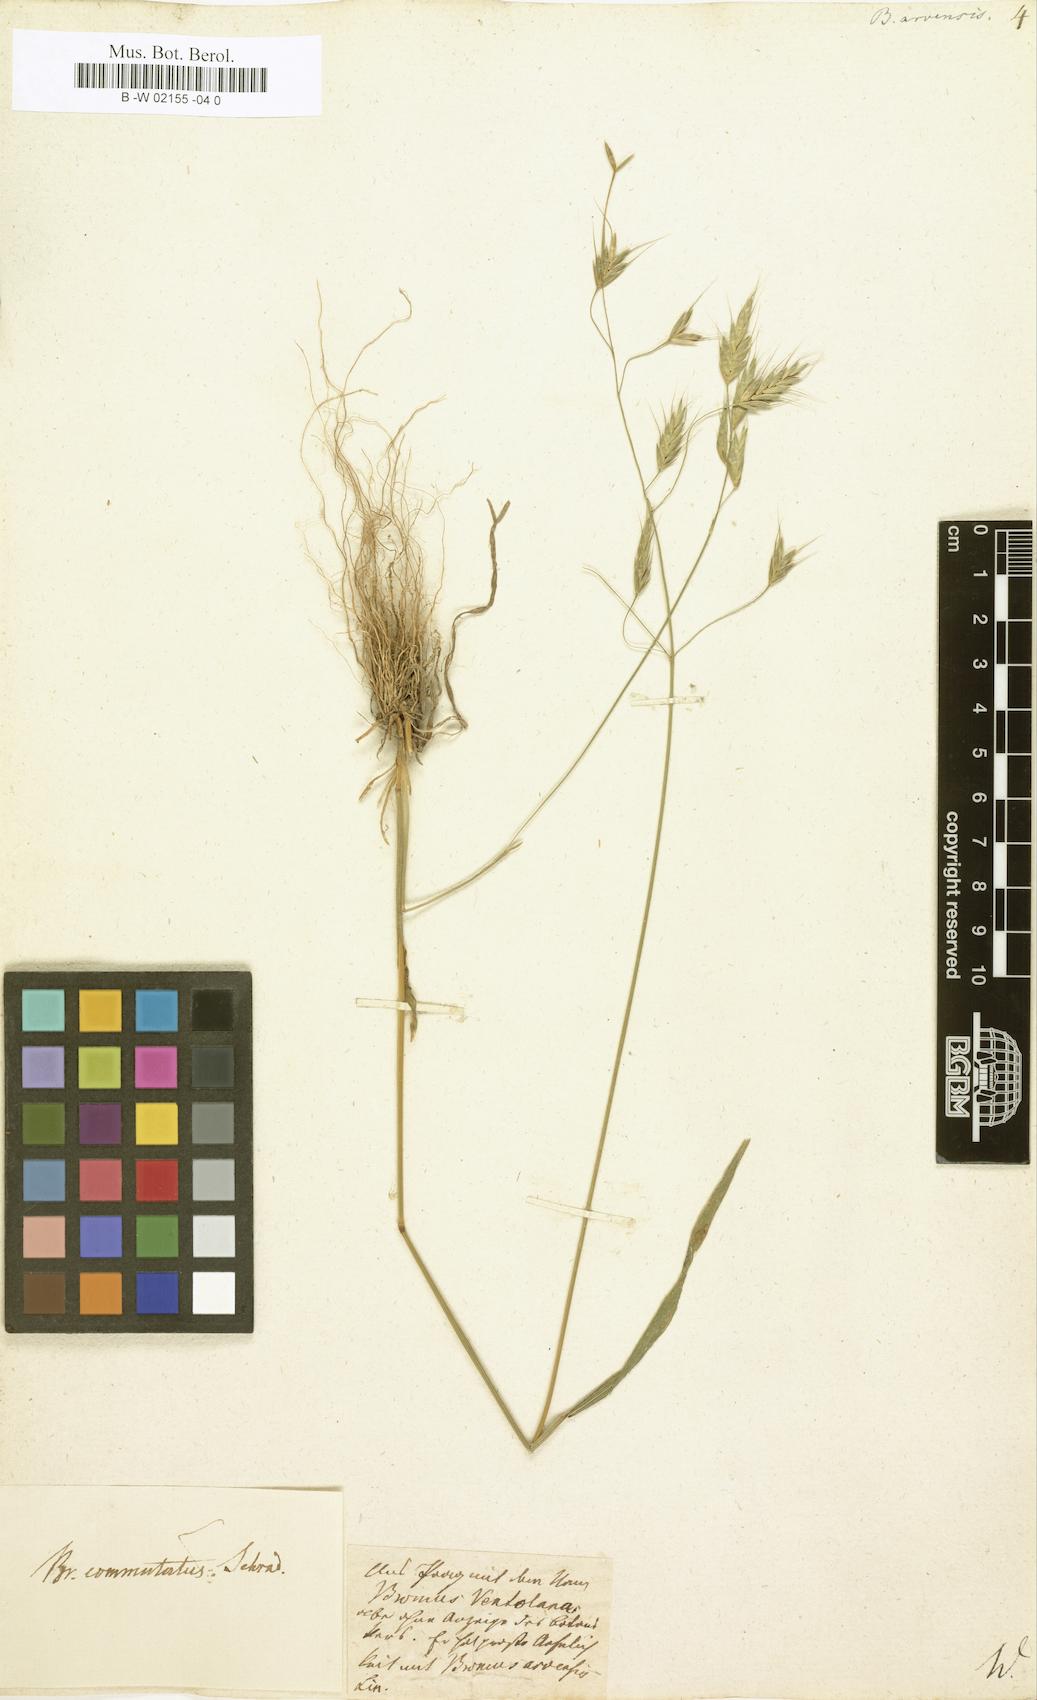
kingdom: Plantae
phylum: Tracheophyta
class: Liliopsida
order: Poales
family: Poaceae
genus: Bromus
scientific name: Bromus arvensis
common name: Field brome
